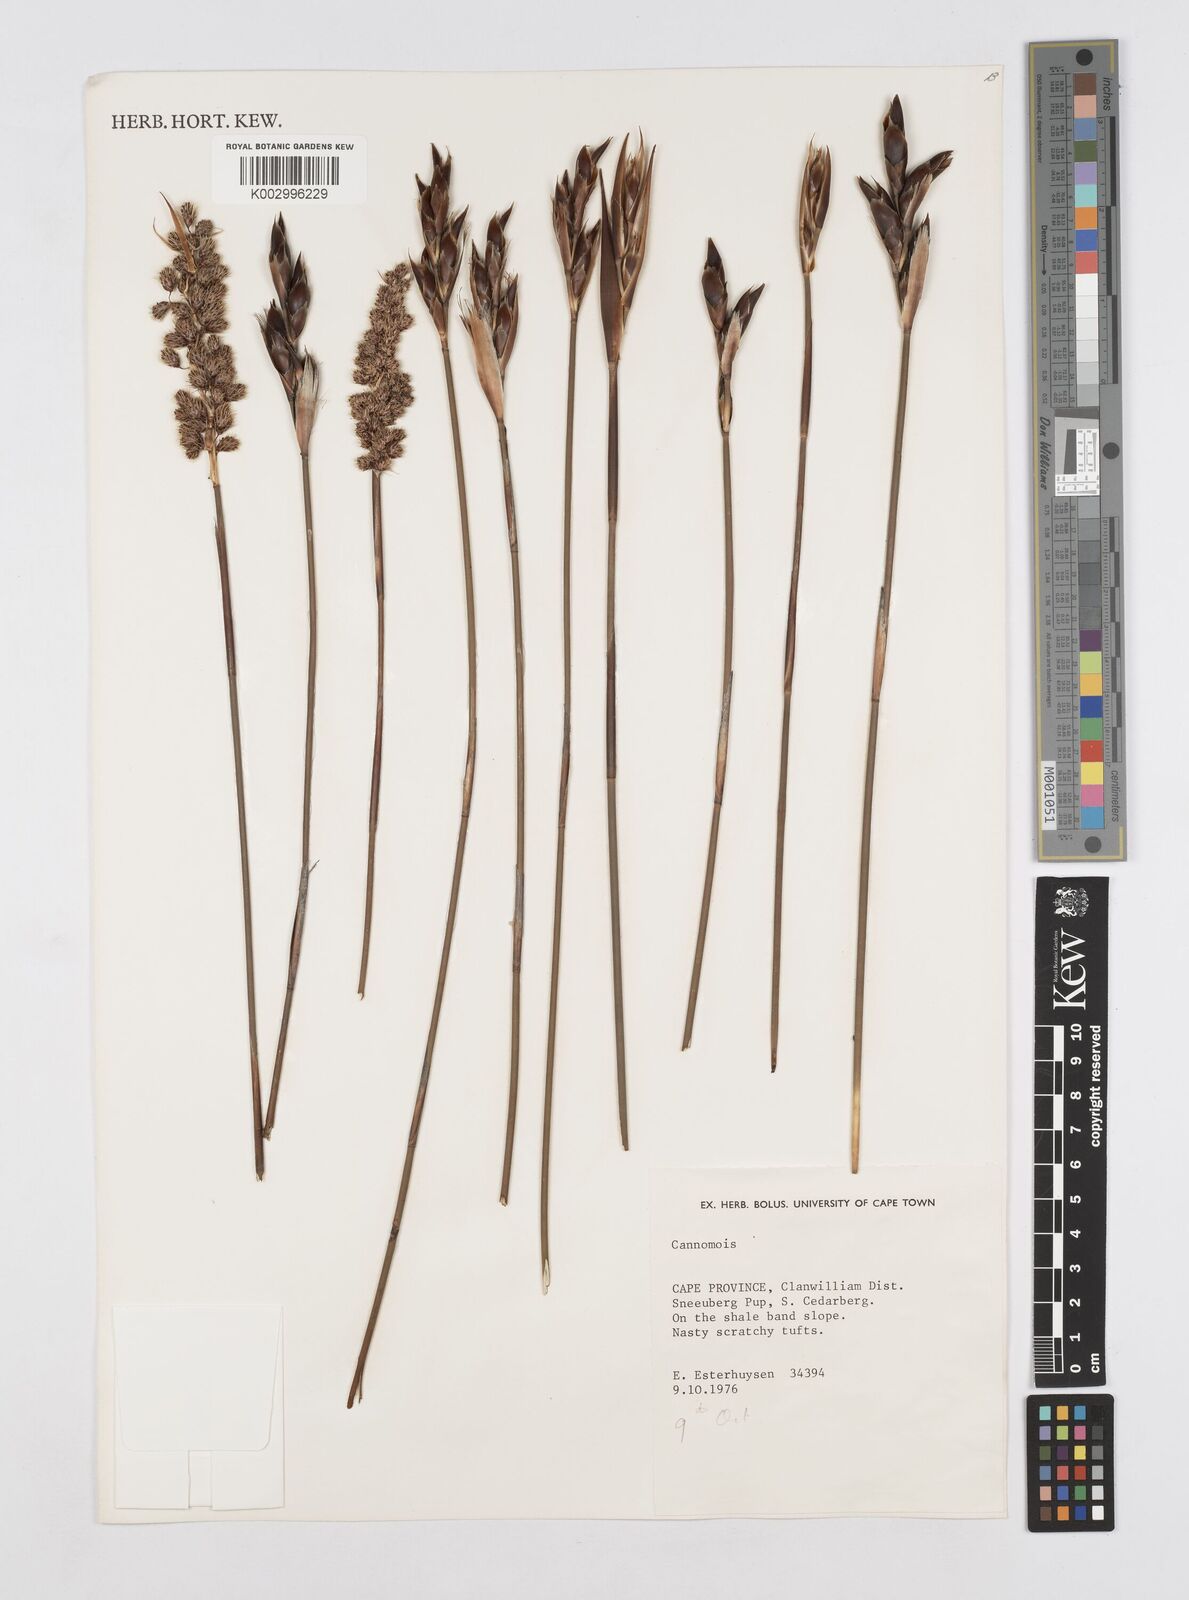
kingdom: Plantae
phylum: Tracheophyta
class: Liliopsida
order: Poales
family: Restionaceae
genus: Cannomois
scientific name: Cannomois
